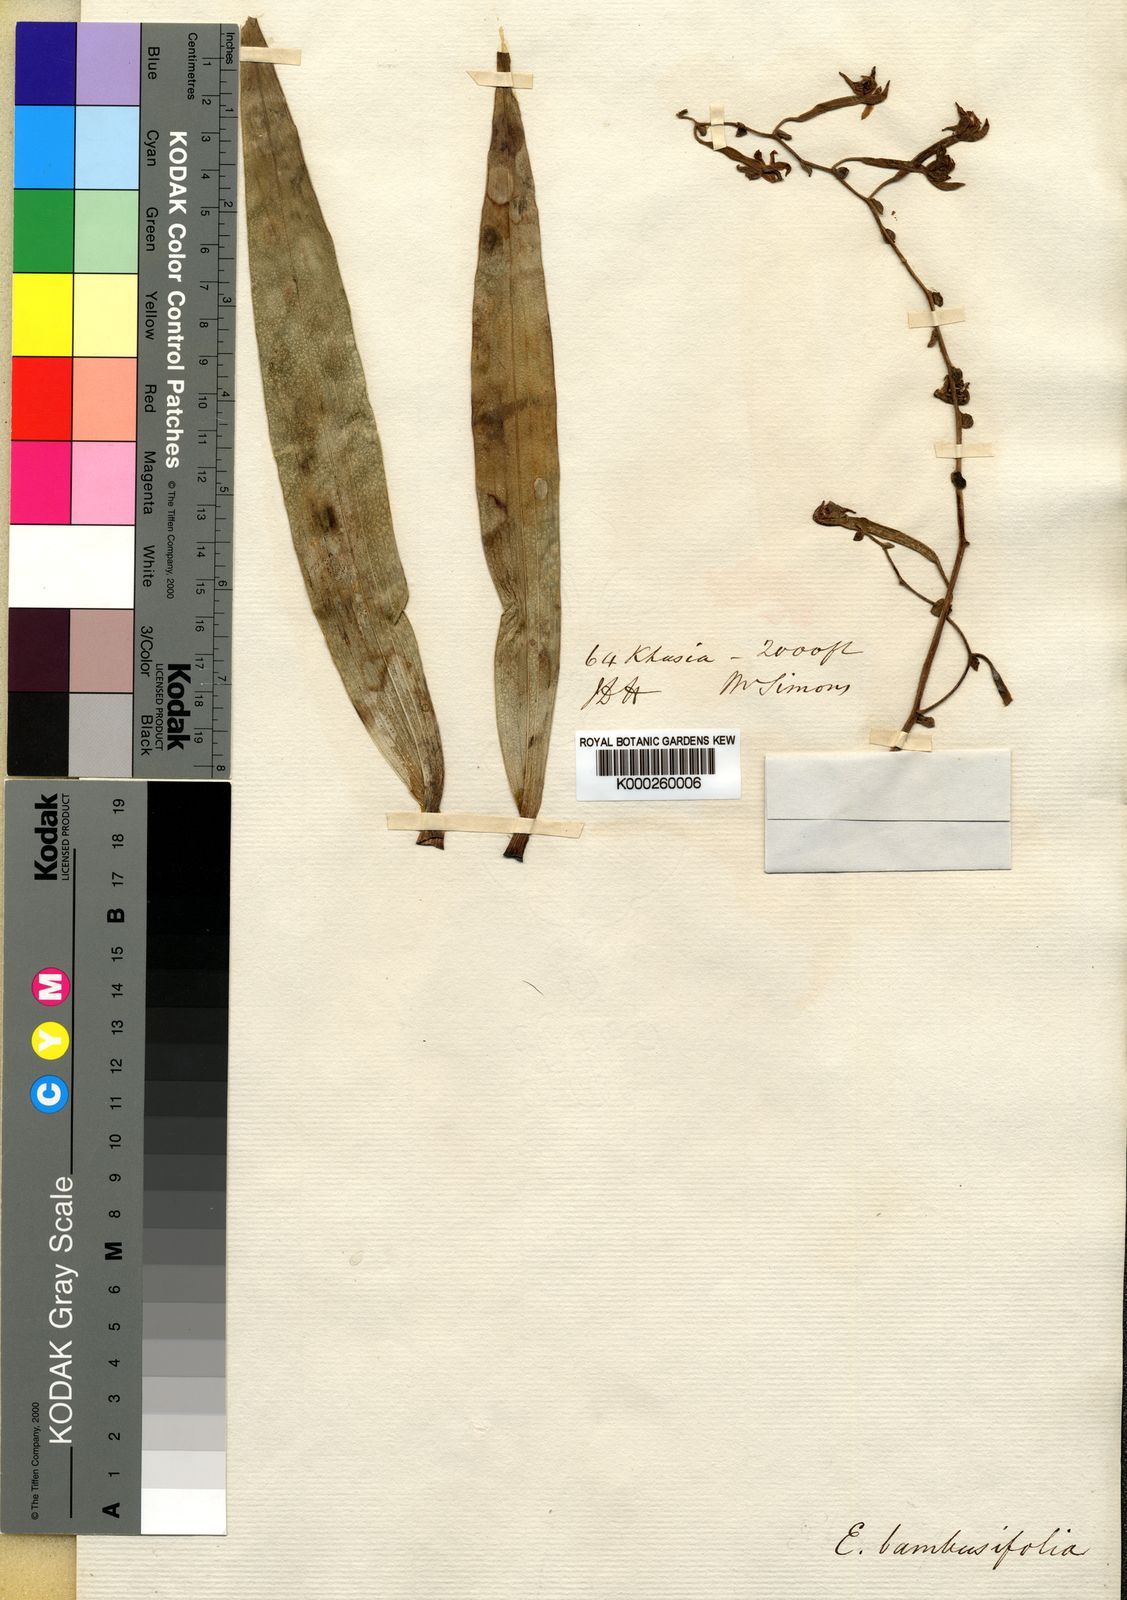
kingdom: Plantae
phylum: Tracheophyta
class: Liliopsida
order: Asparagales
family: Orchidaceae
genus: Bambuseria
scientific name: Bambuseria bambusifolia
